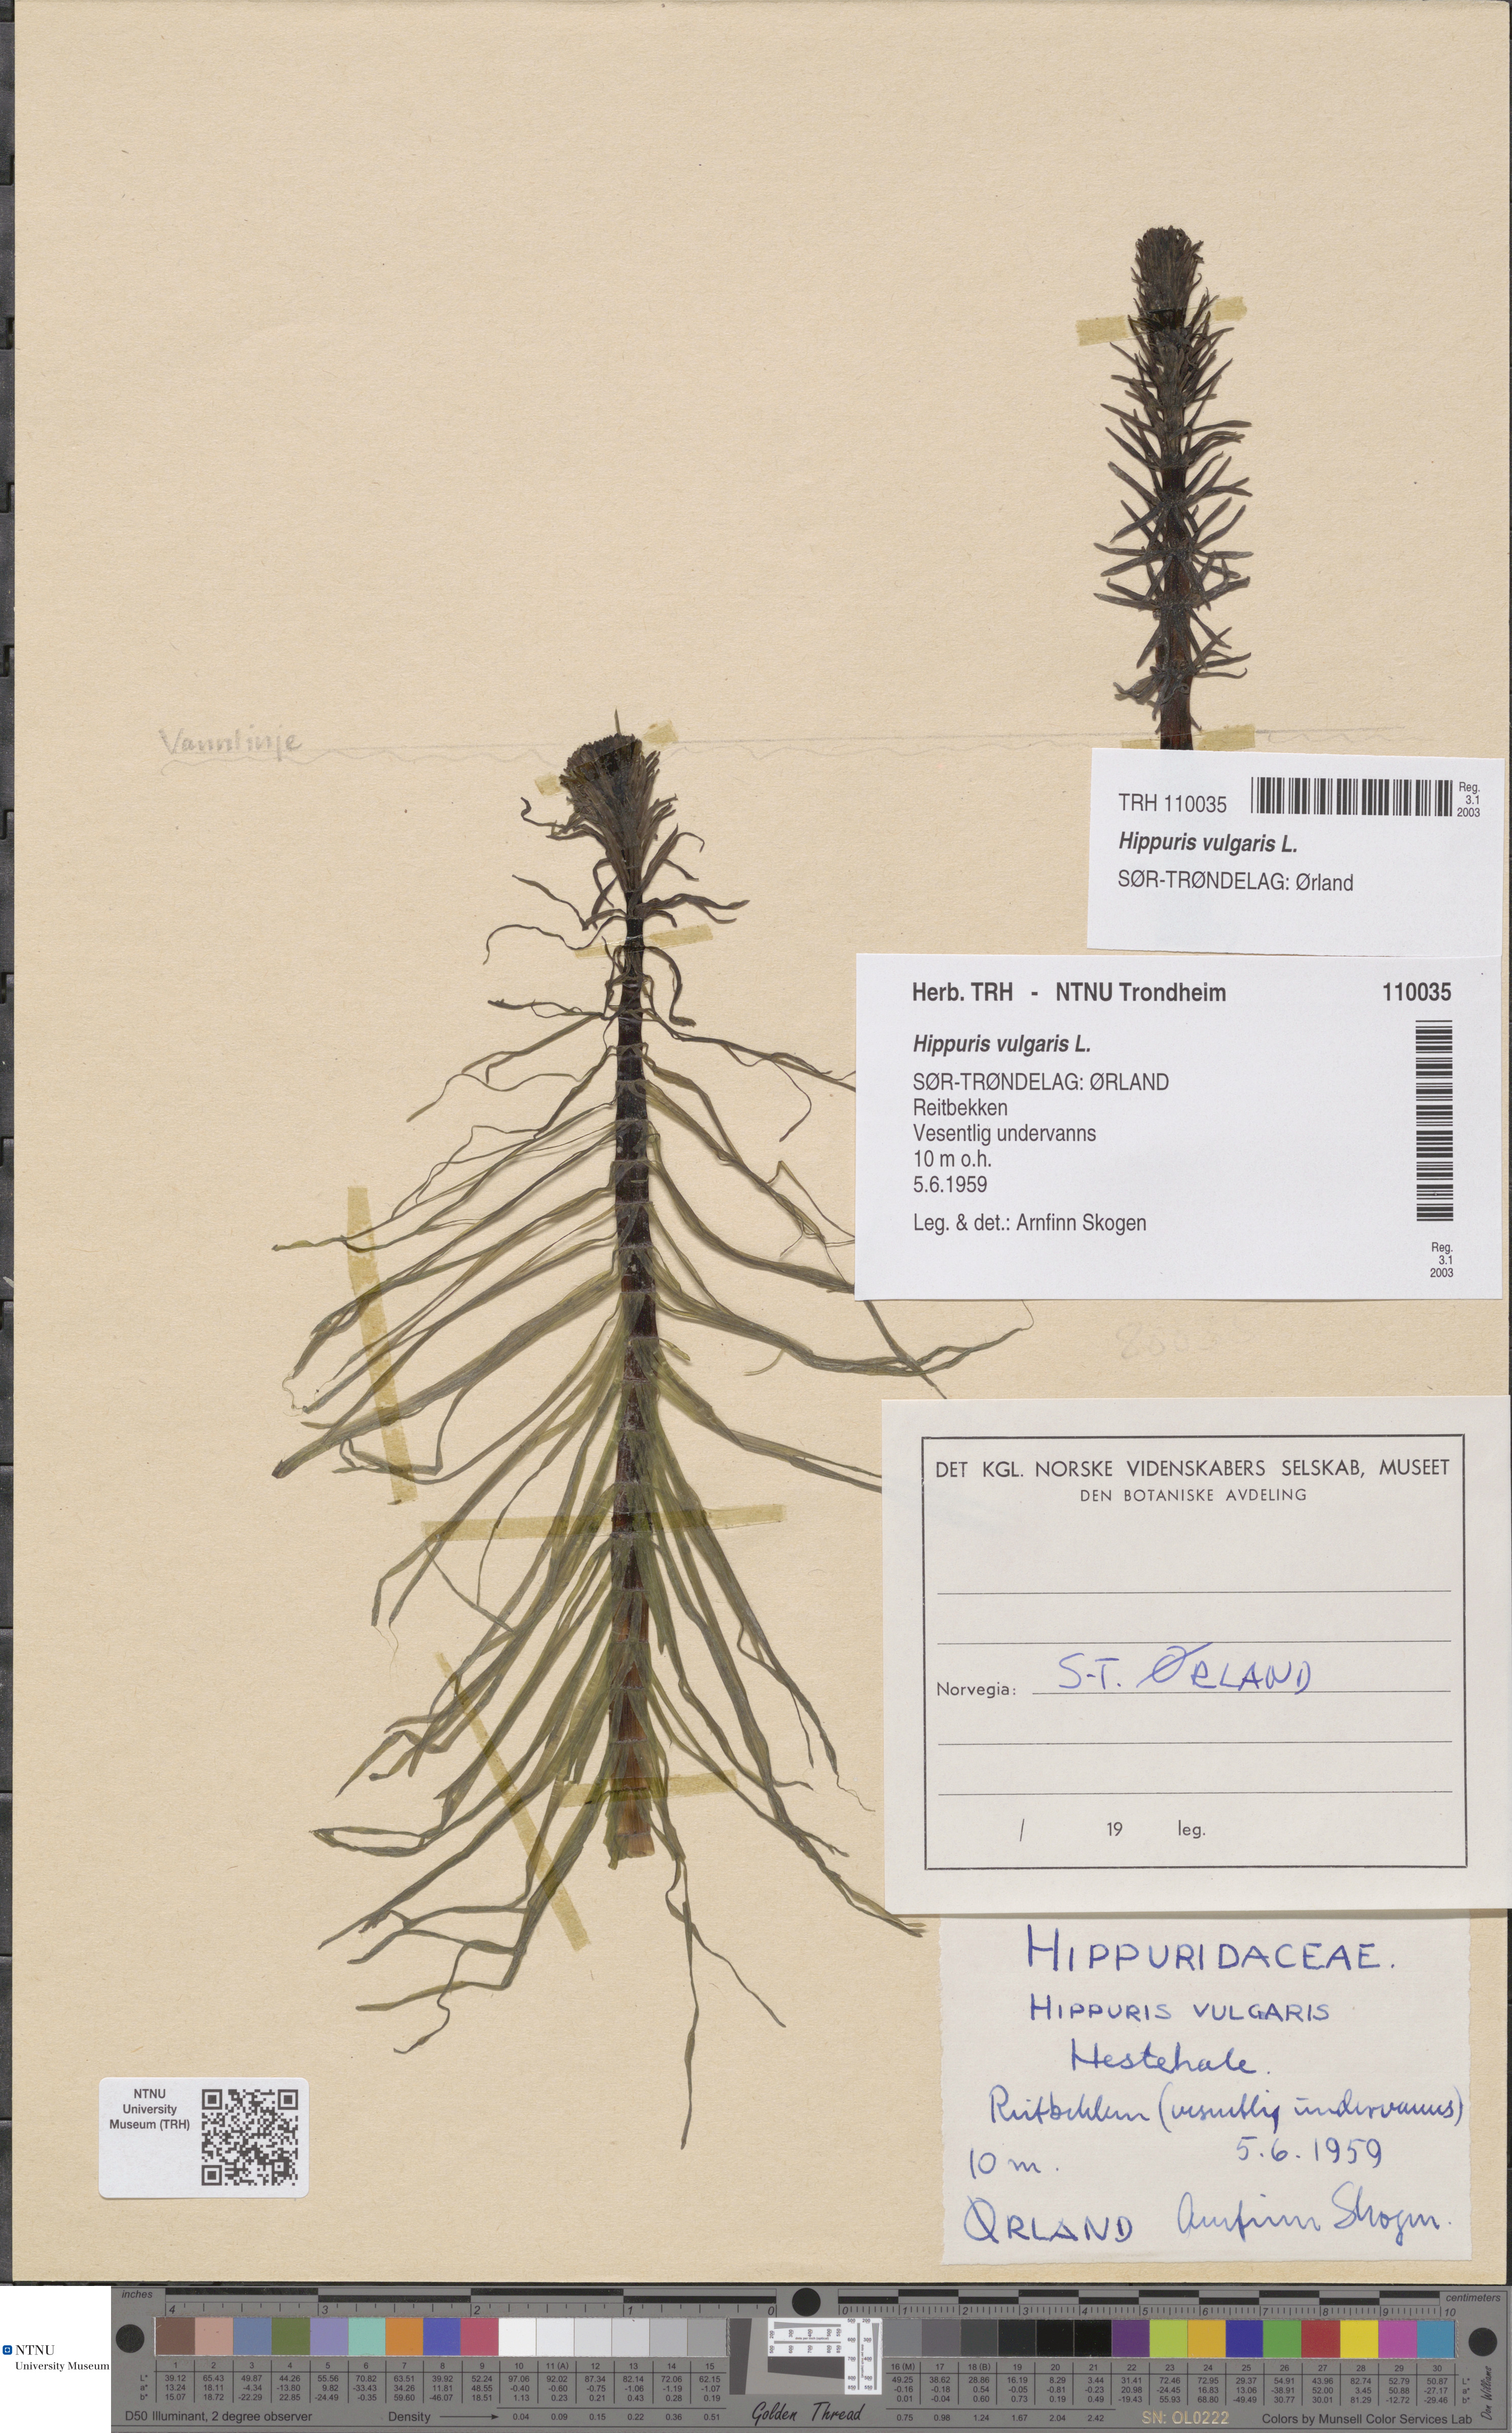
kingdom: Plantae
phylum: Tracheophyta
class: Magnoliopsida
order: Lamiales
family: Plantaginaceae
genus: Hippuris
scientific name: Hippuris vulgaris
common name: Mare's-tail
